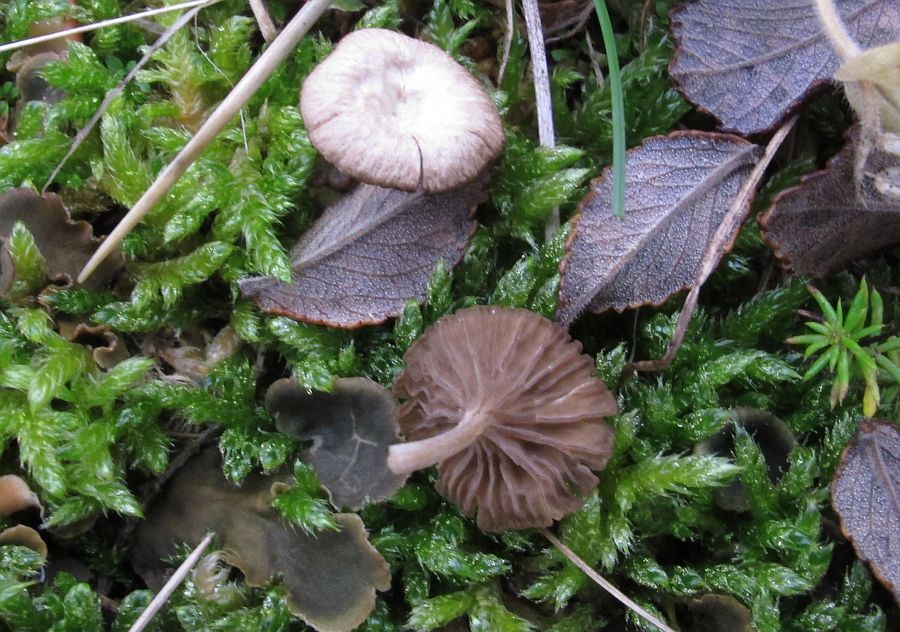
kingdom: Fungi
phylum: Basidiomycota
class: Agaricomycetes
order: Agaricales
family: Hygrophoraceae
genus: Arrhenia
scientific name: Arrhenia peltigerina
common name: skjoldlav-fontænehat
